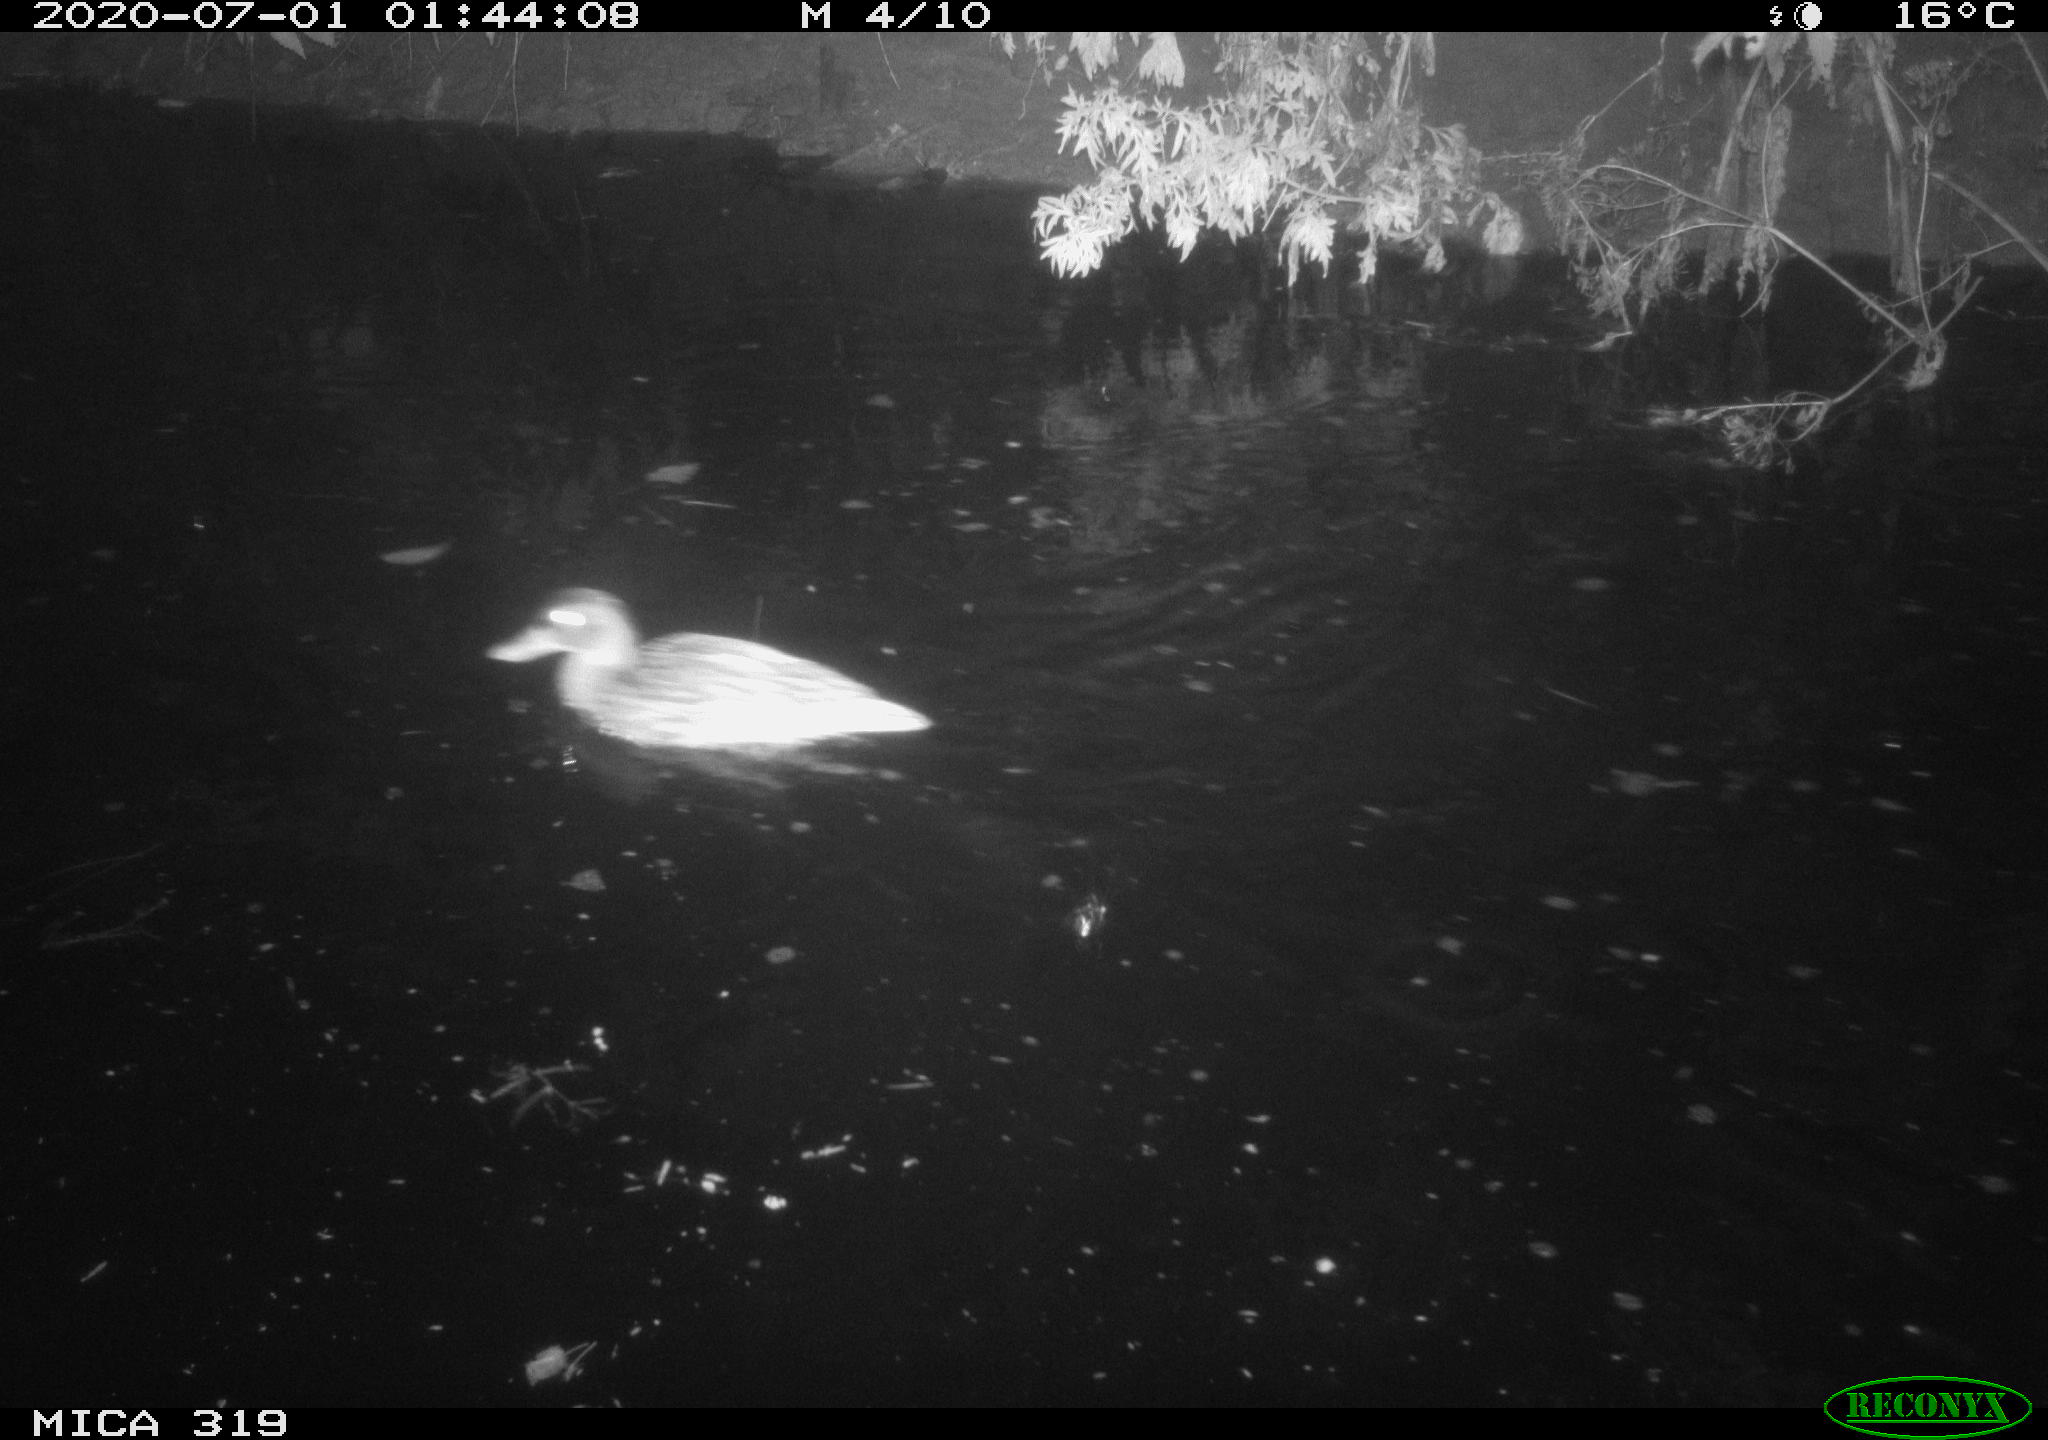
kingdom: Animalia
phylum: Chordata
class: Aves
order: Anseriformes
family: Anatidae
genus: Anas
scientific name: Anas platyrhynchos
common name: Mallard
